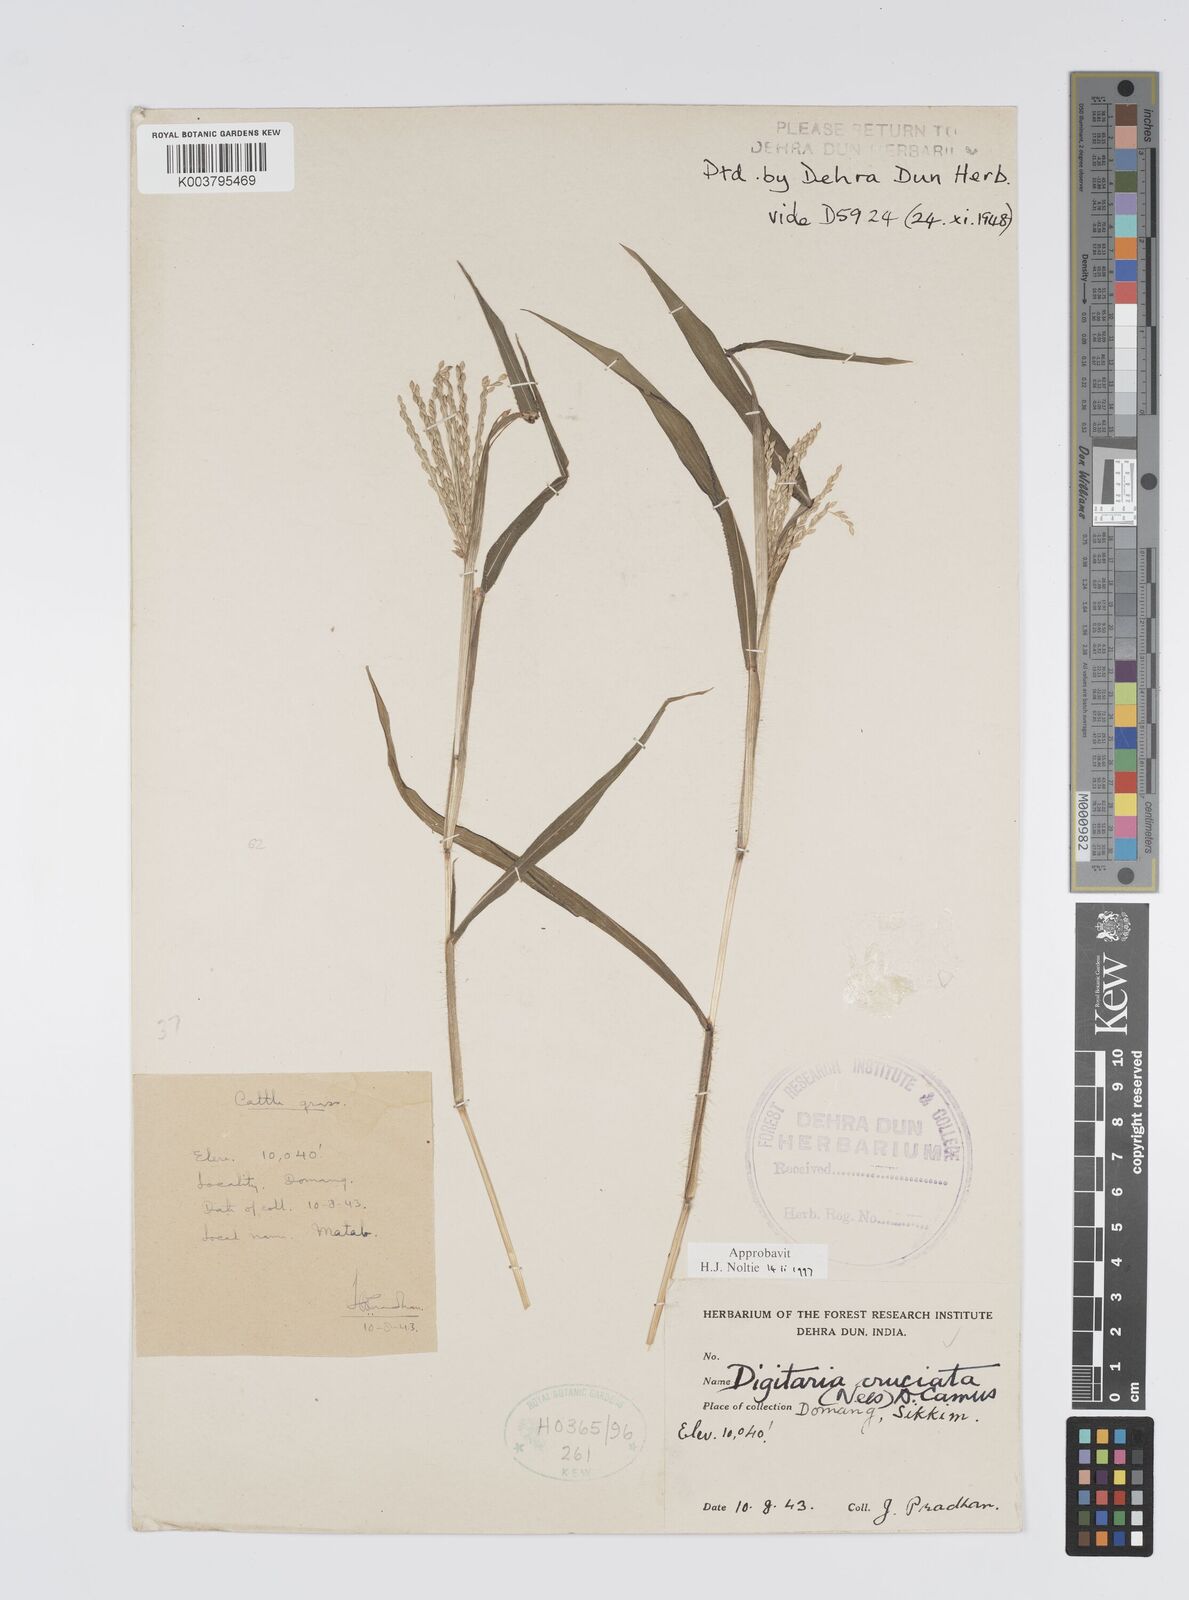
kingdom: Plantae
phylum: Tracheophyta
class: Liliopsida
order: Poales
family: Poaceae
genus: Digitaria
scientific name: Digitaria cruciata
